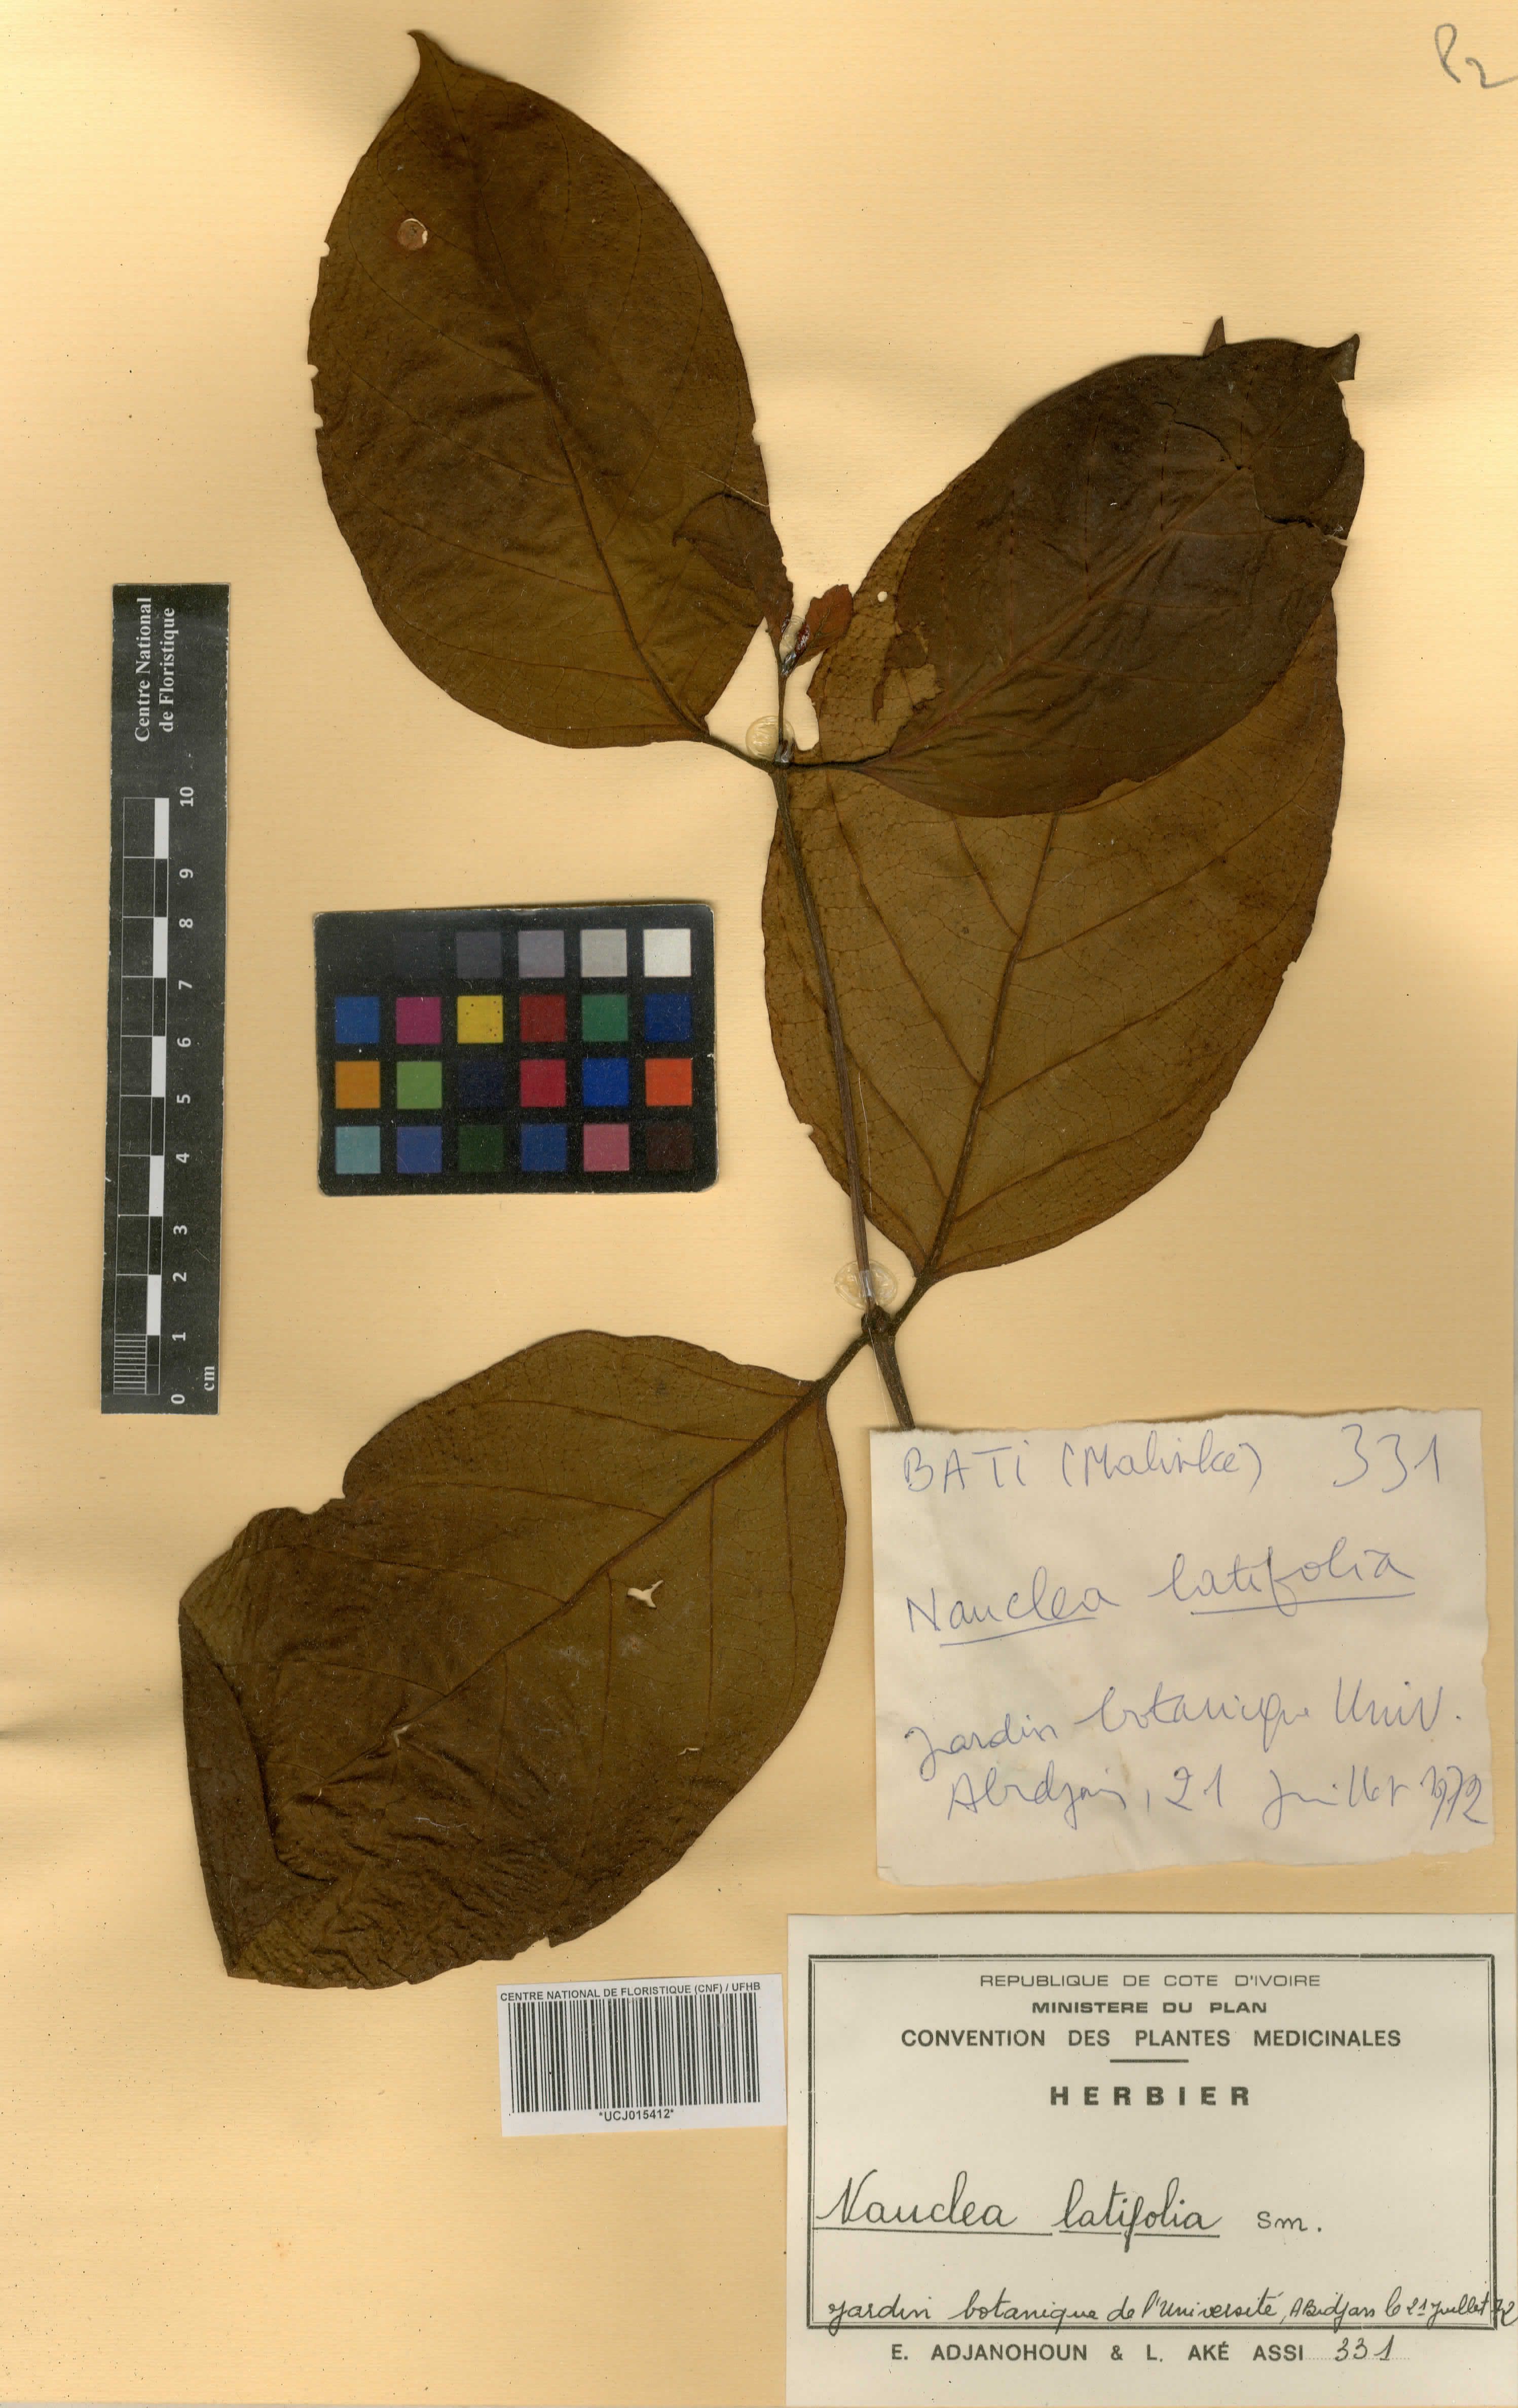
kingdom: Plantae
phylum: Tracheophyta
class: Magnoliopsida
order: Gentianales
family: Rubiaceae
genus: Nauclea
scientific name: Nauclea latifolia
